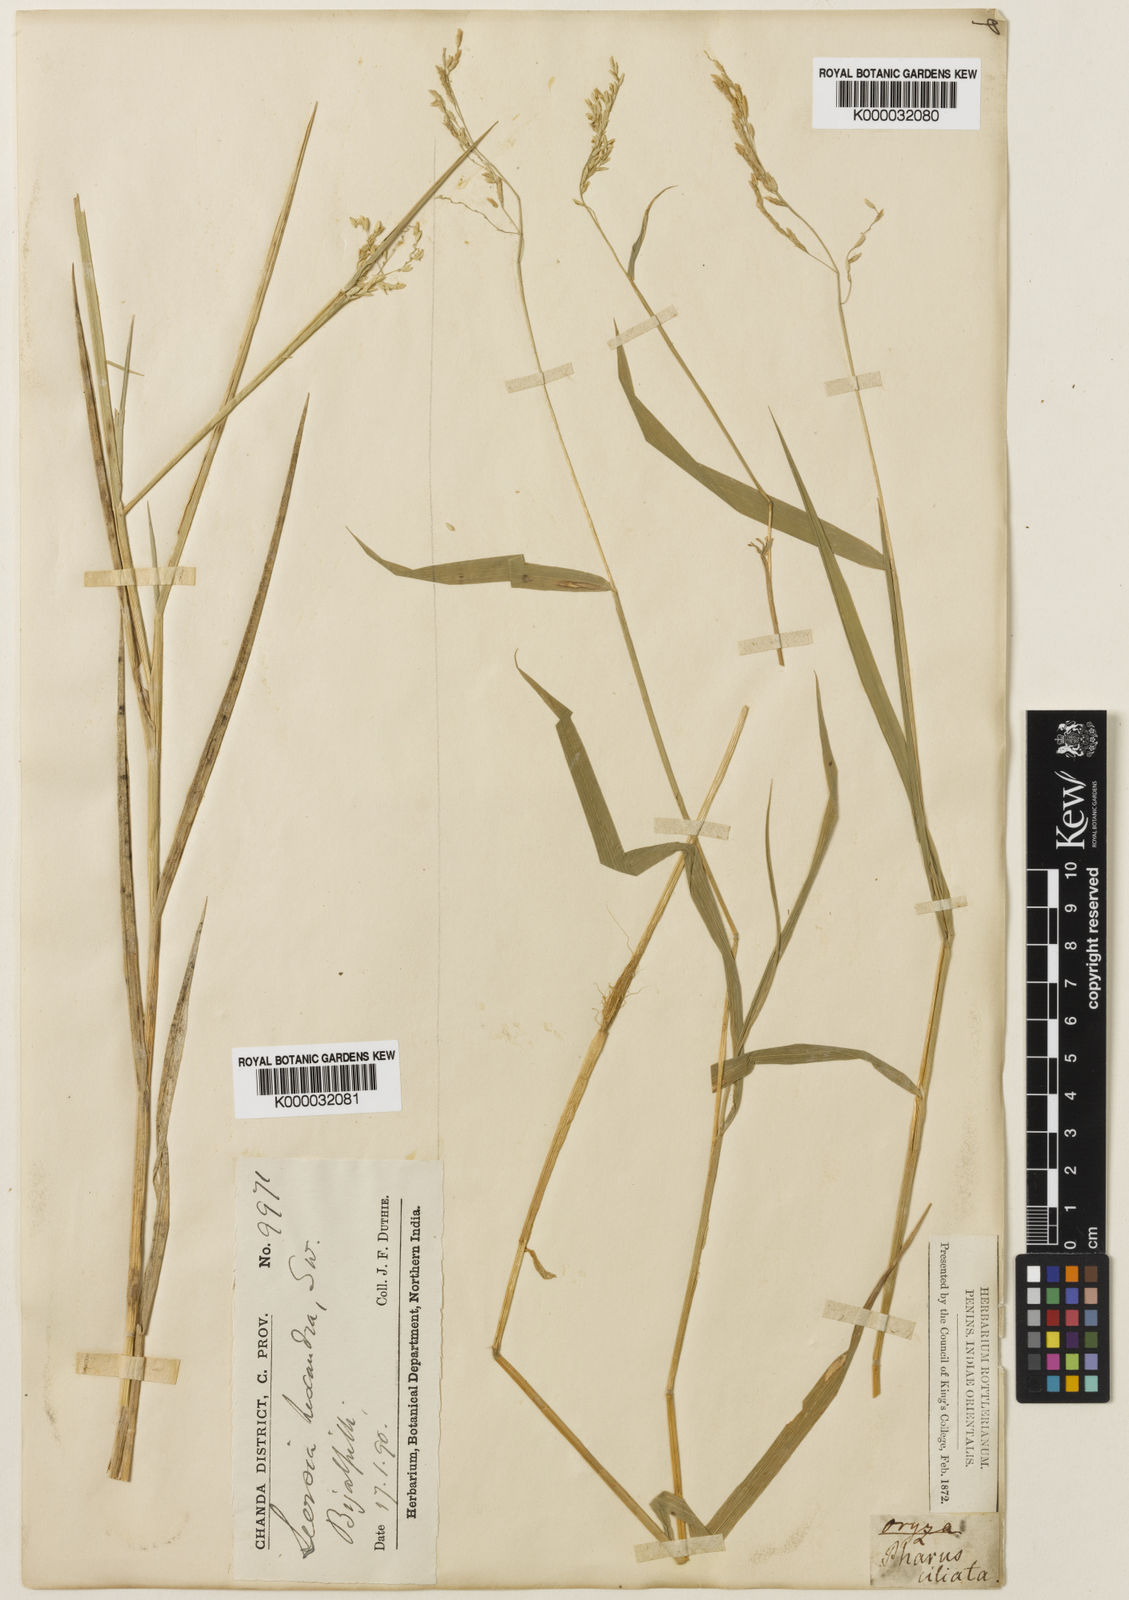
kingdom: Plantae
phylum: Tracheophyta
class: Liliopsida
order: Poales
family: Poaceae
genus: Leersia
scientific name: Leersia hexandra
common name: Southern cut grass
